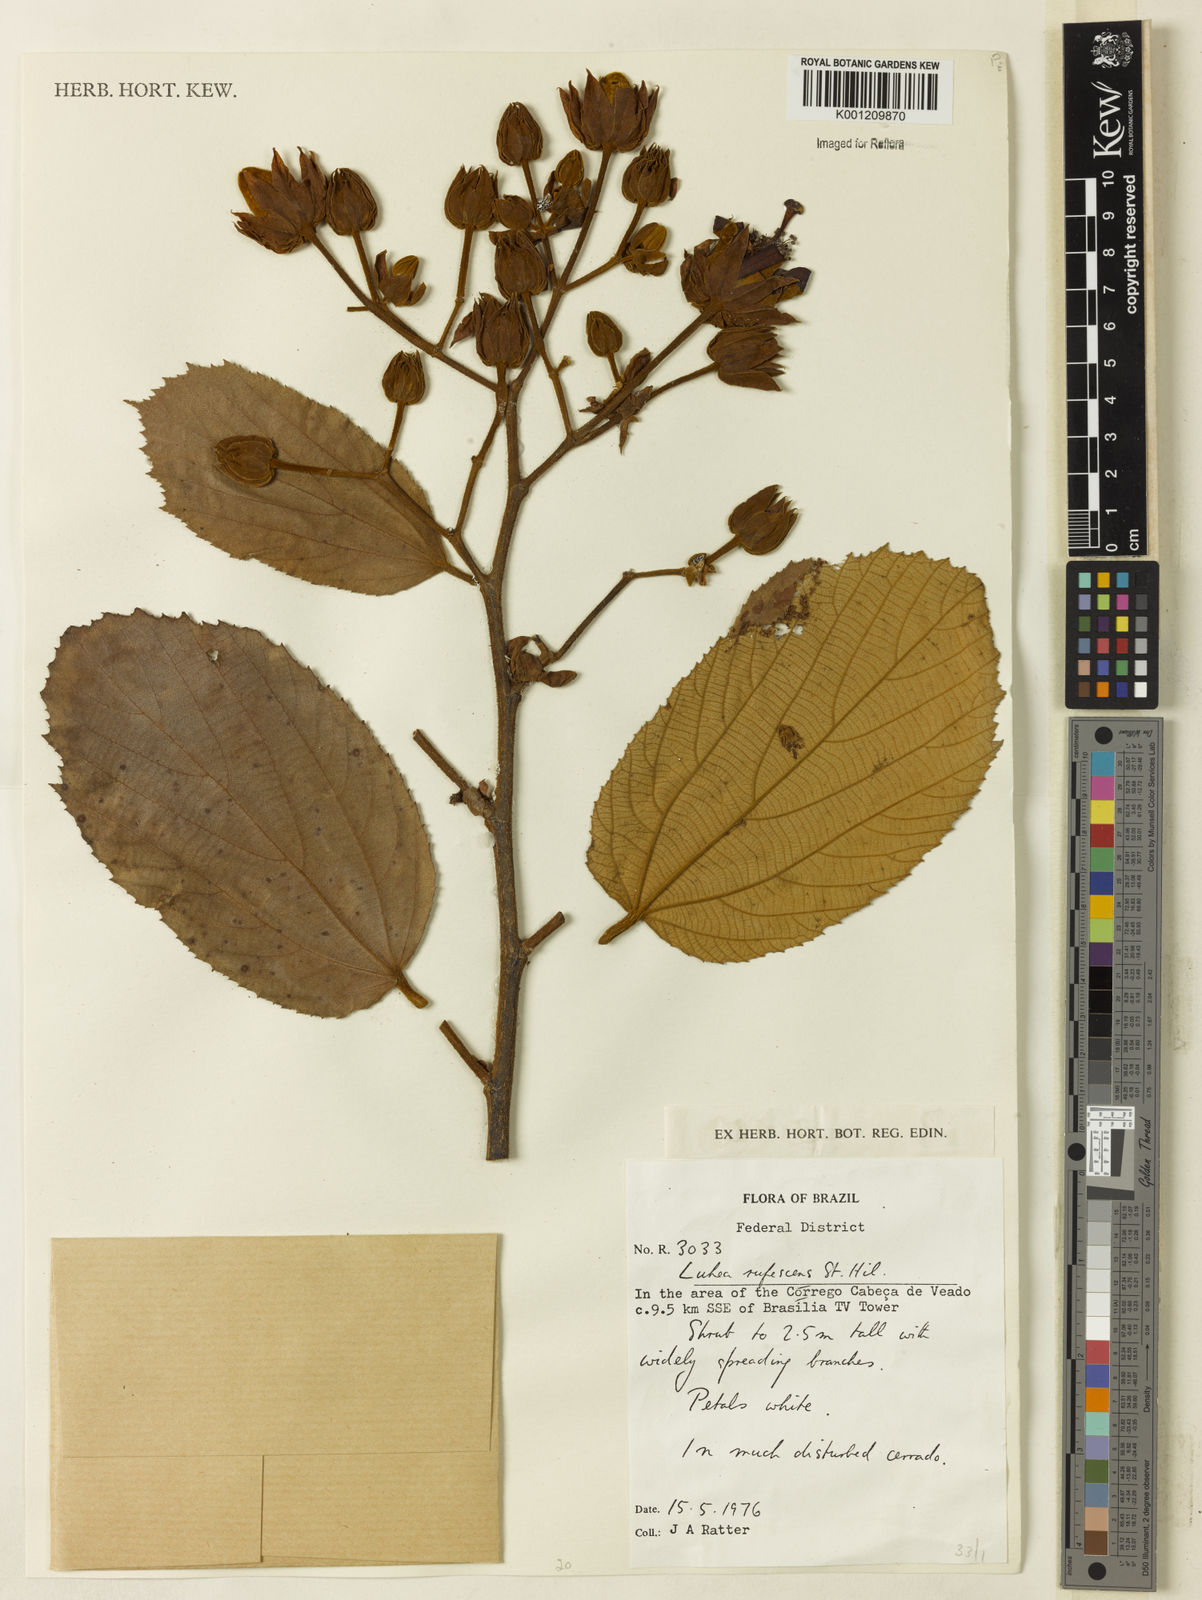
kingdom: Plantae
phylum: Tracheophyta
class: Magnoliopsida
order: Malvales
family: Malvaceae
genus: Luehea
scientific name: Luehea rufescens
